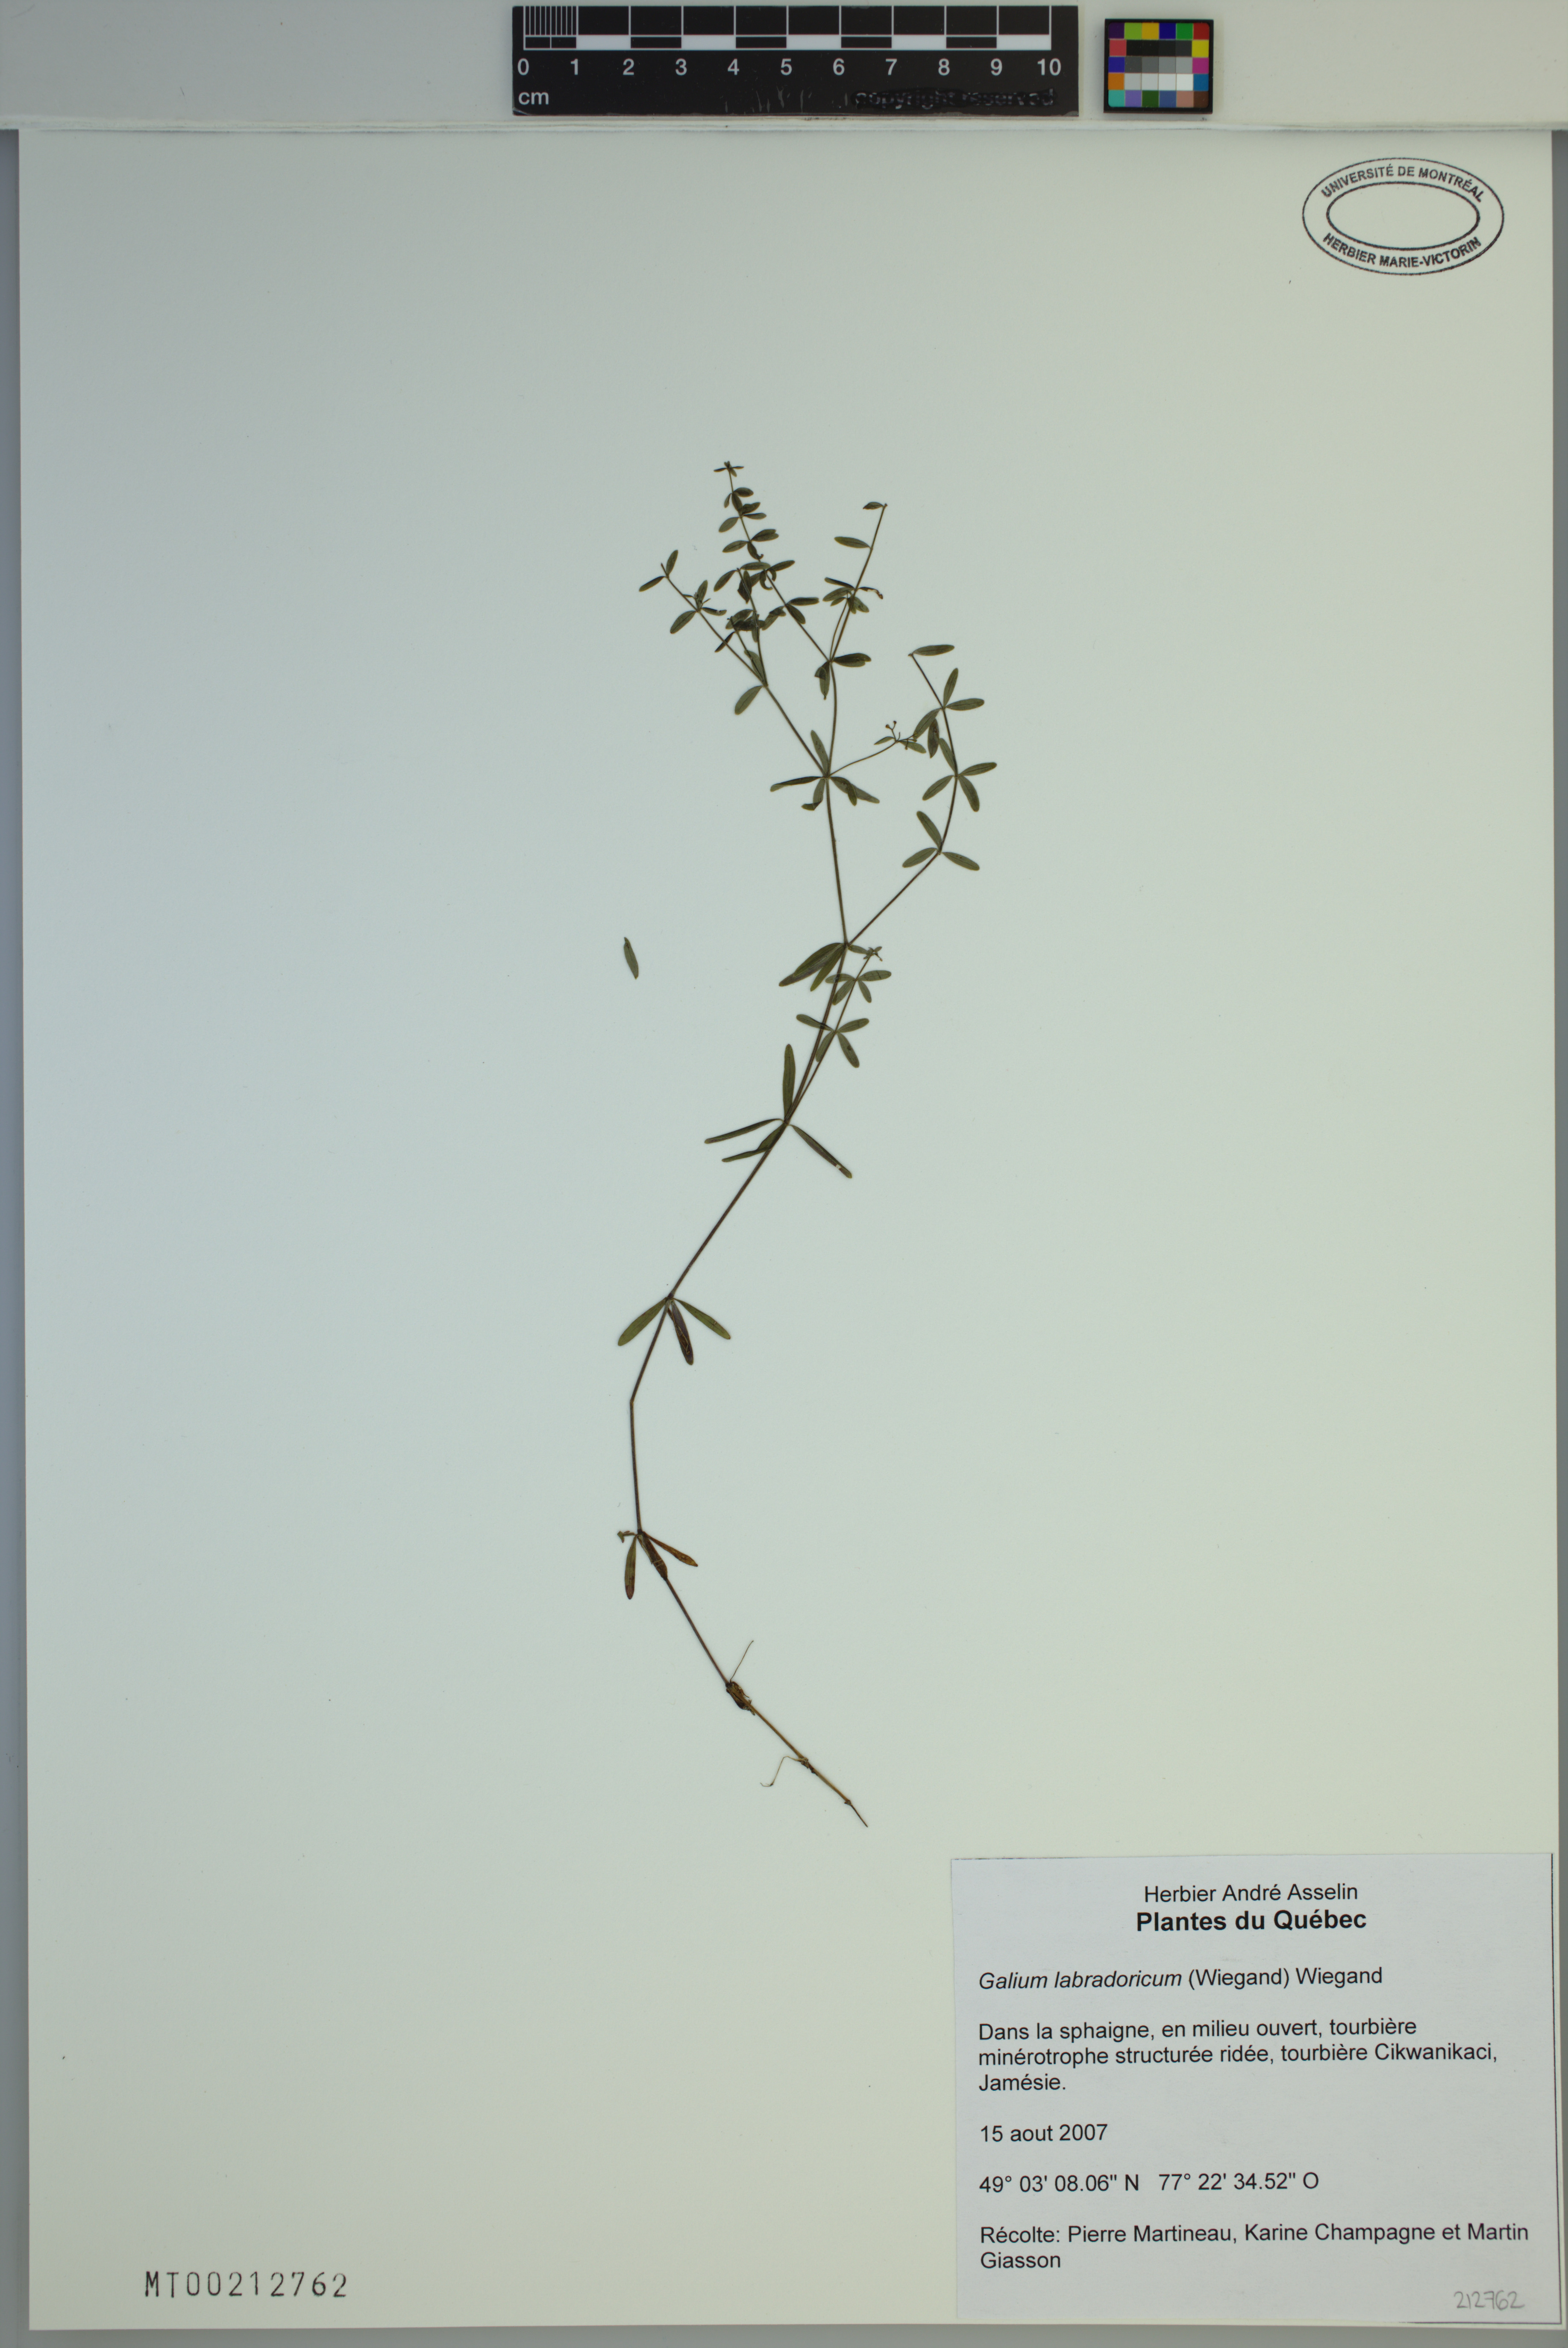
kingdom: Plantae
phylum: Tracheophyta
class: Magnoliopsida
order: Gentianales
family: Rubiaceae
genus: Galium
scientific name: Galium labradoricum
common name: Labrador bedstraw
